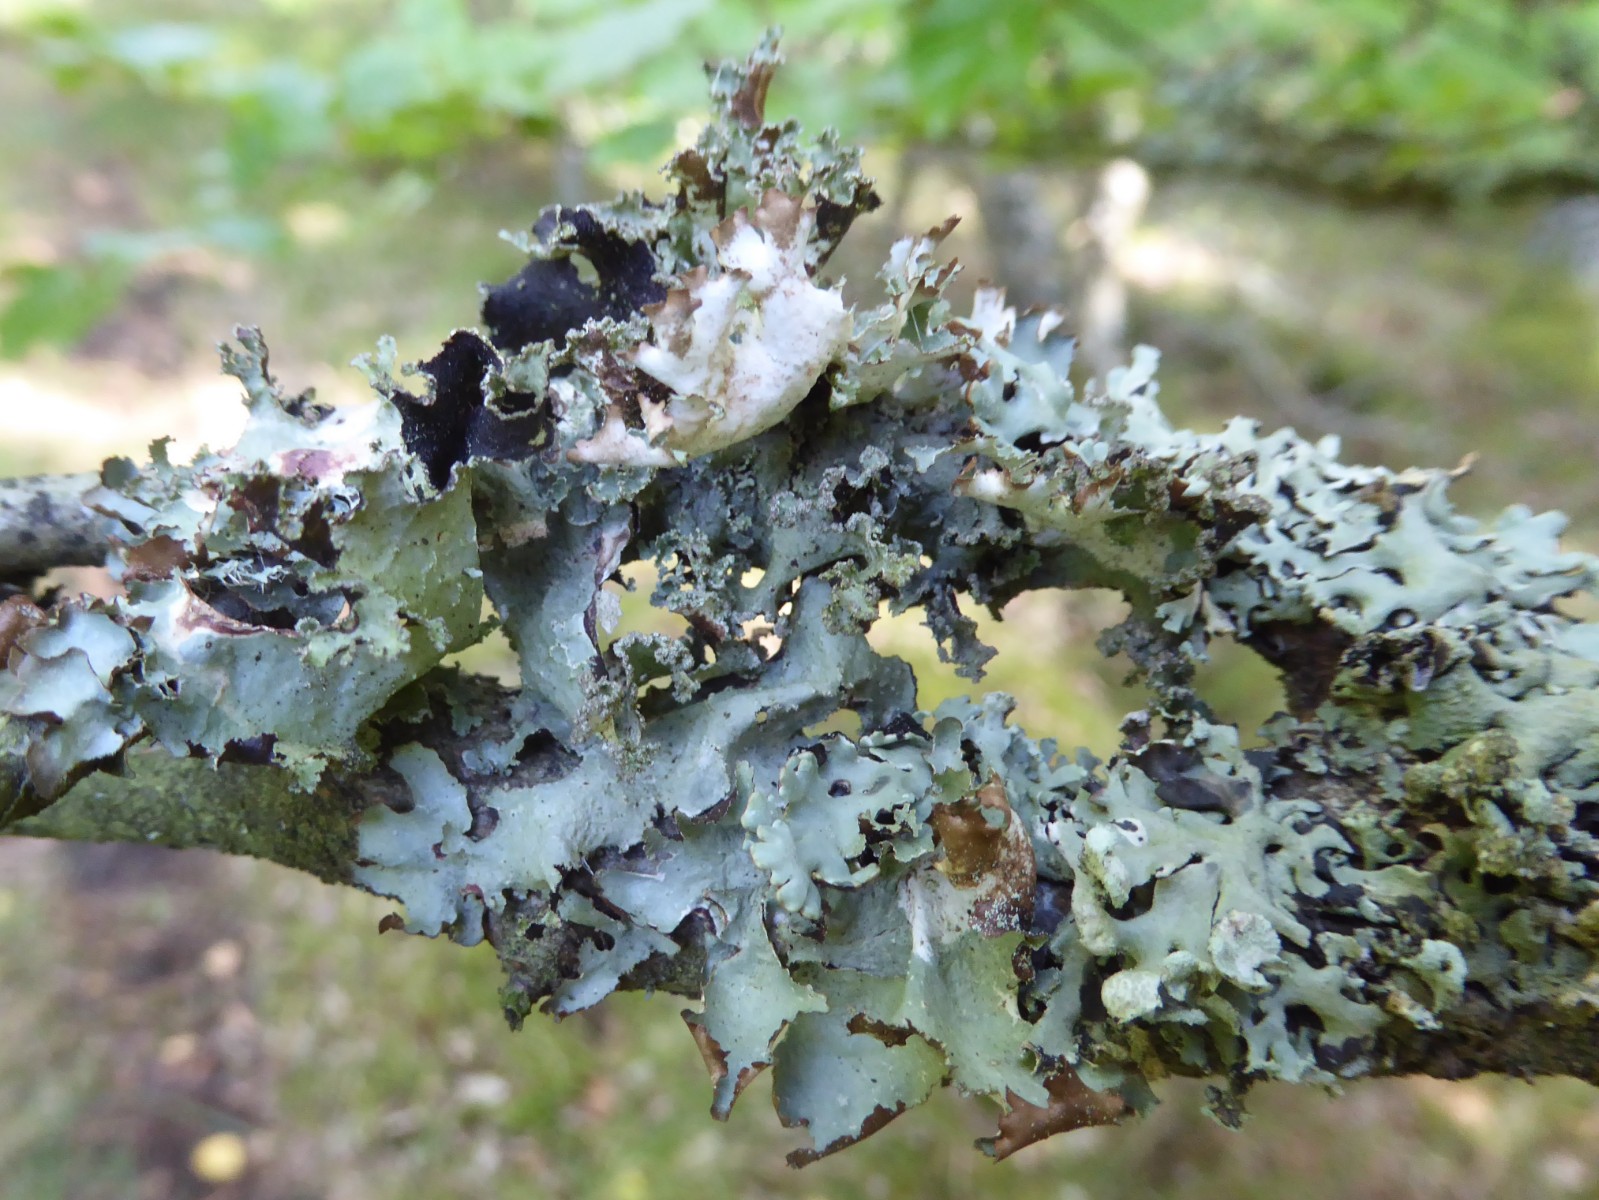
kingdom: Fungi
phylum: Ascomycota
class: Lecanoromycetes
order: Lecanorales
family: Parmeliaceae
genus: Platismatia
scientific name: Platismatia glauca
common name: blågrå papirlav
